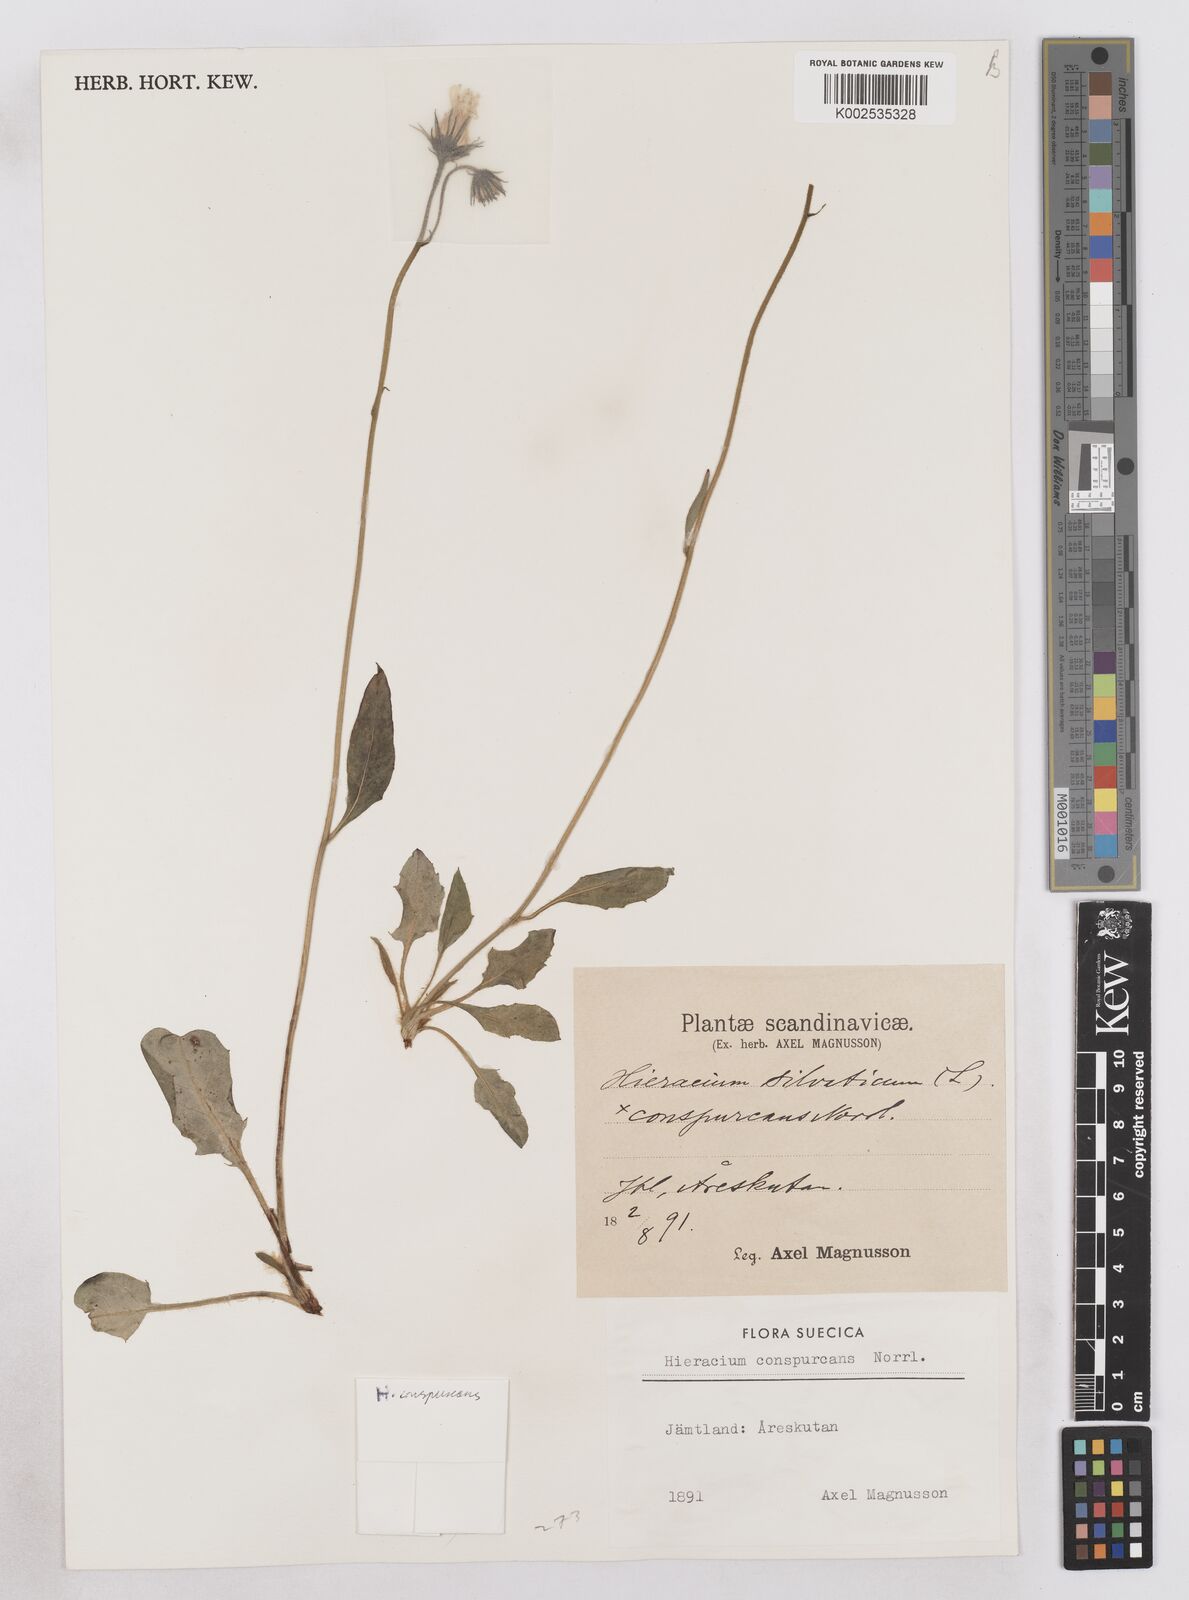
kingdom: Plantae
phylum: Tracheophyta
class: Magnoliopsida
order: Asterales
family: Asteraceae
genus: Hieracium
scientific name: Hieracium conspurcans
